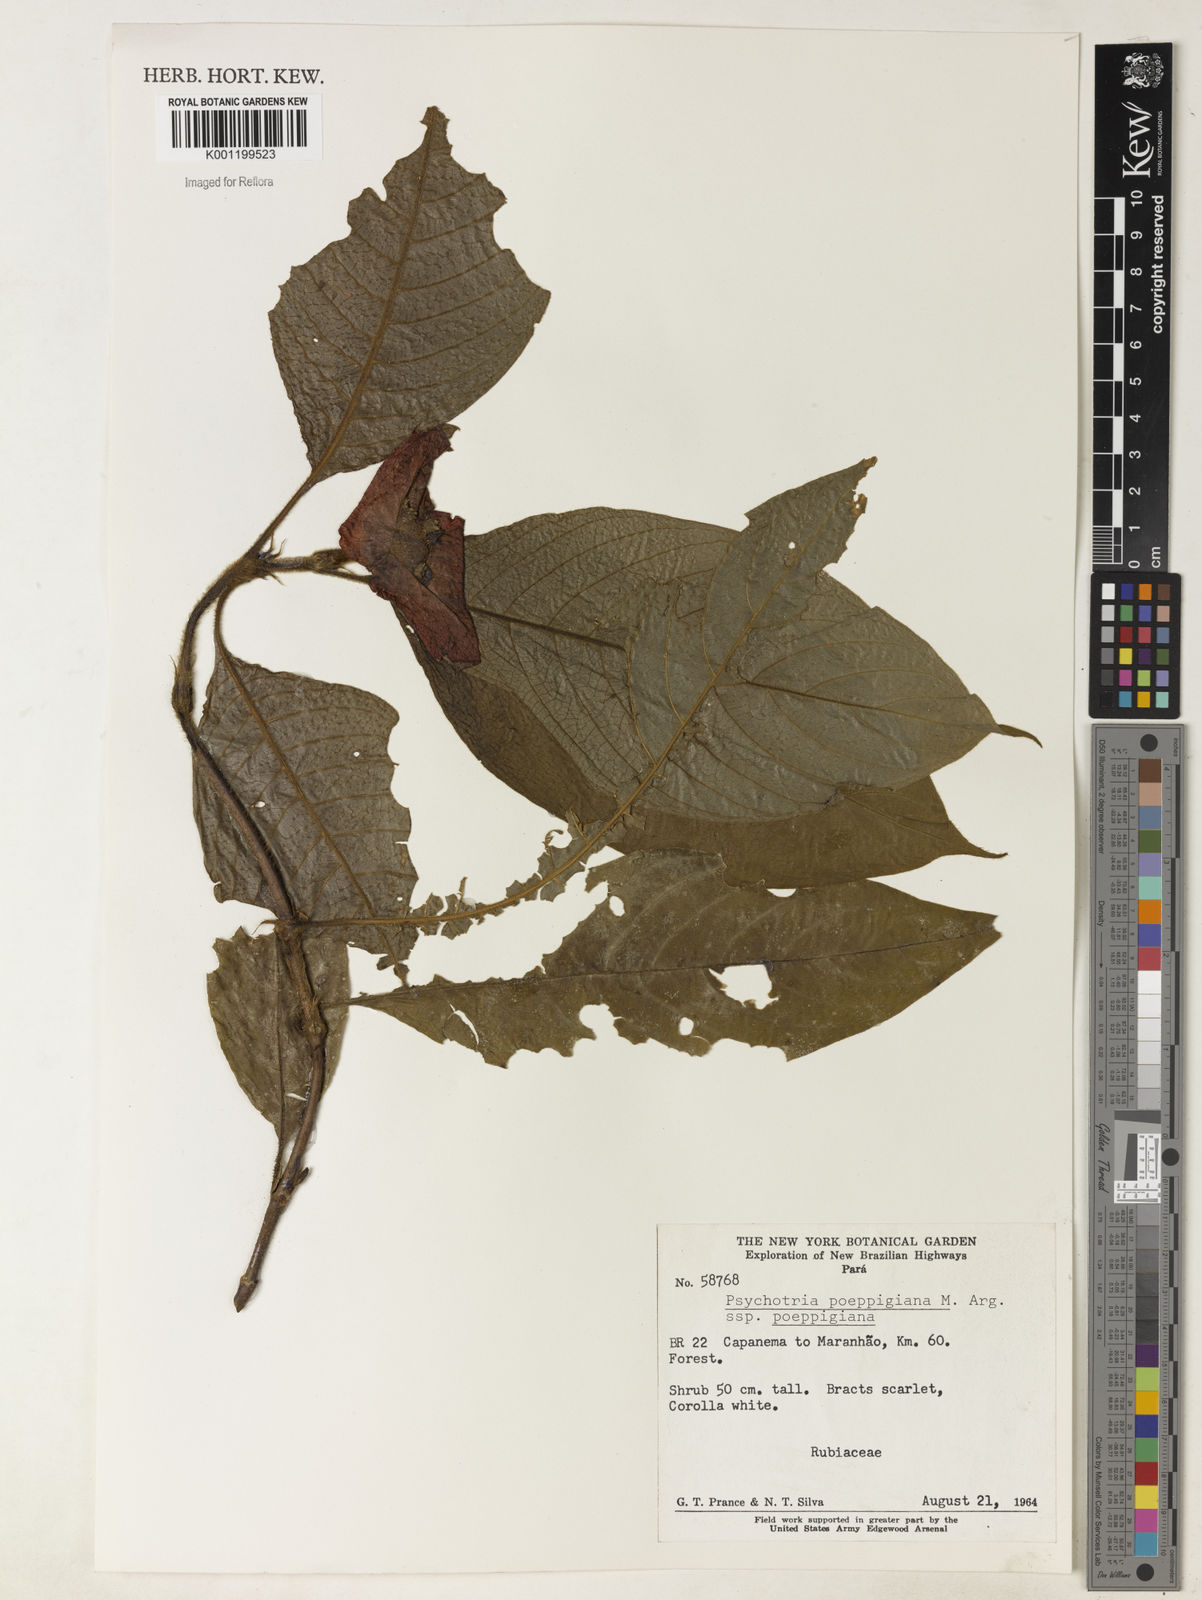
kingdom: Plantae
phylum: Tracheophyta
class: Magnoliopsida
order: Gentianales
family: Rubiaceae
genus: Psychotria
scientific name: Psychotria
